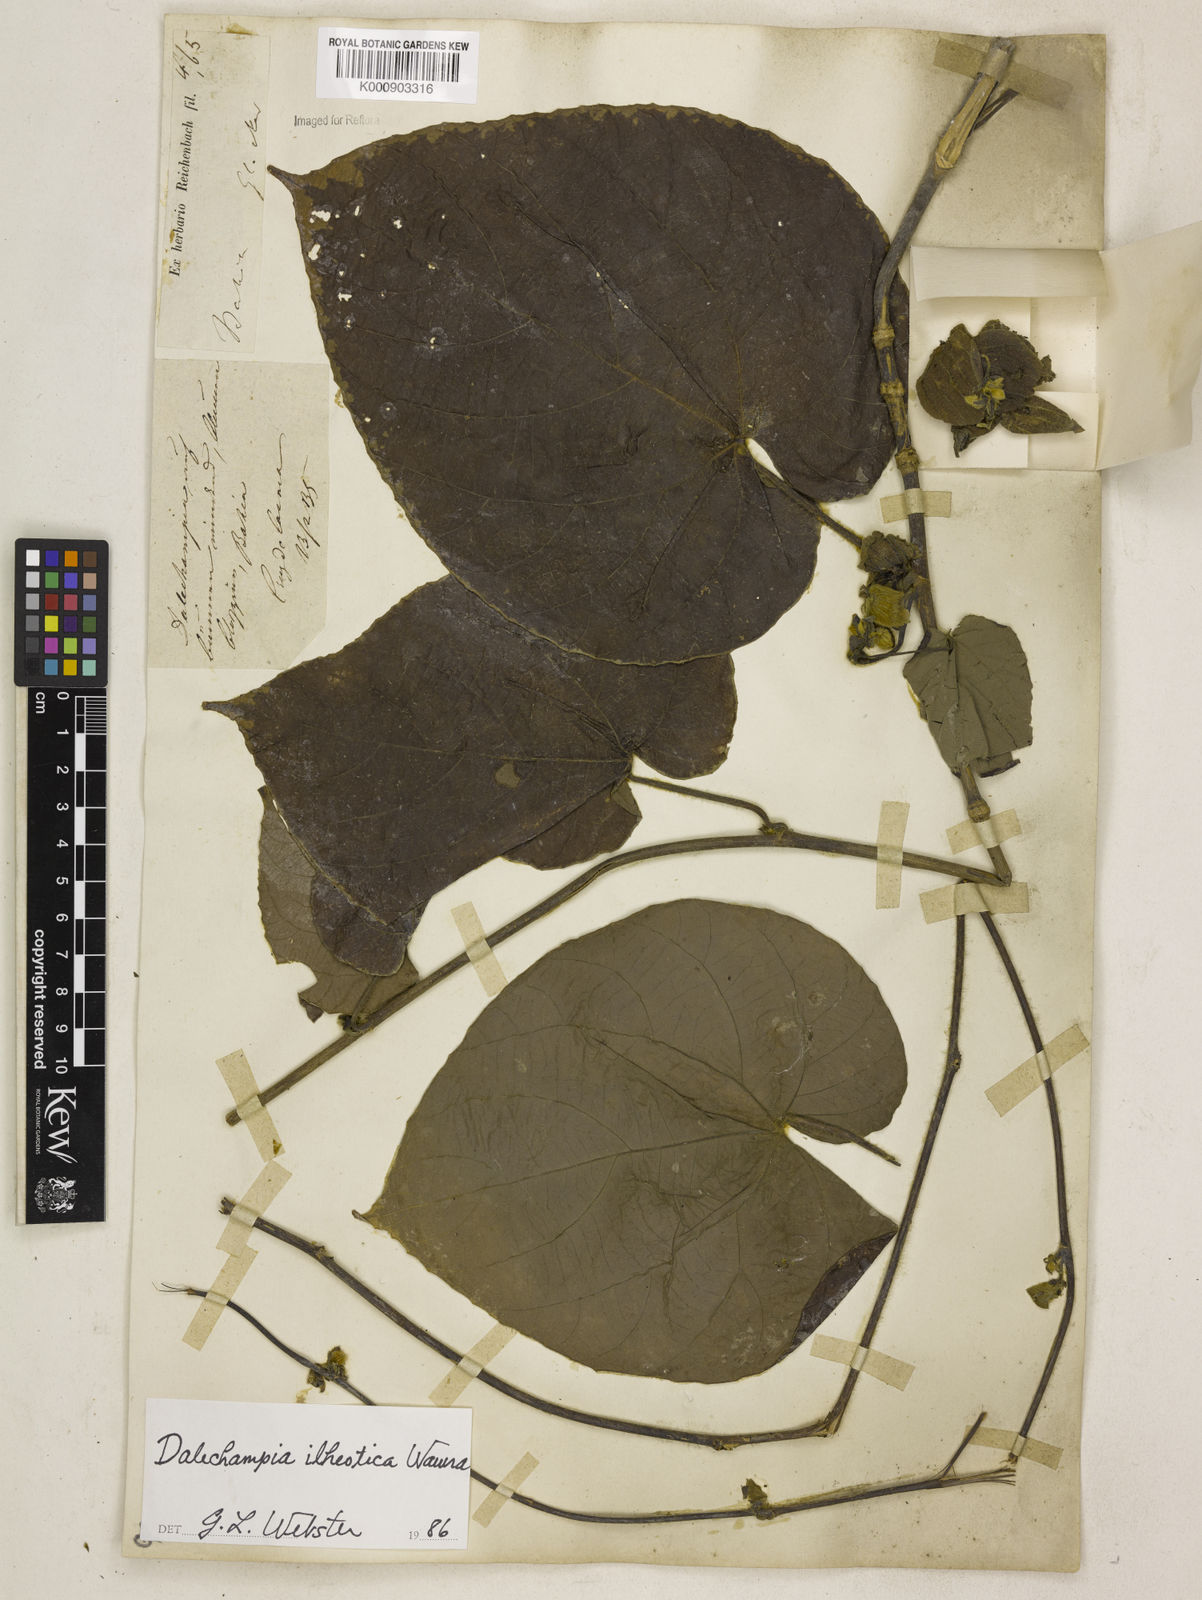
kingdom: Plantae
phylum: Tracheophyta
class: Magnoliopsida
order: Malpighiales
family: Euphorbiaceae
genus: Dalechampia
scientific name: Dalechampia ilheotica
